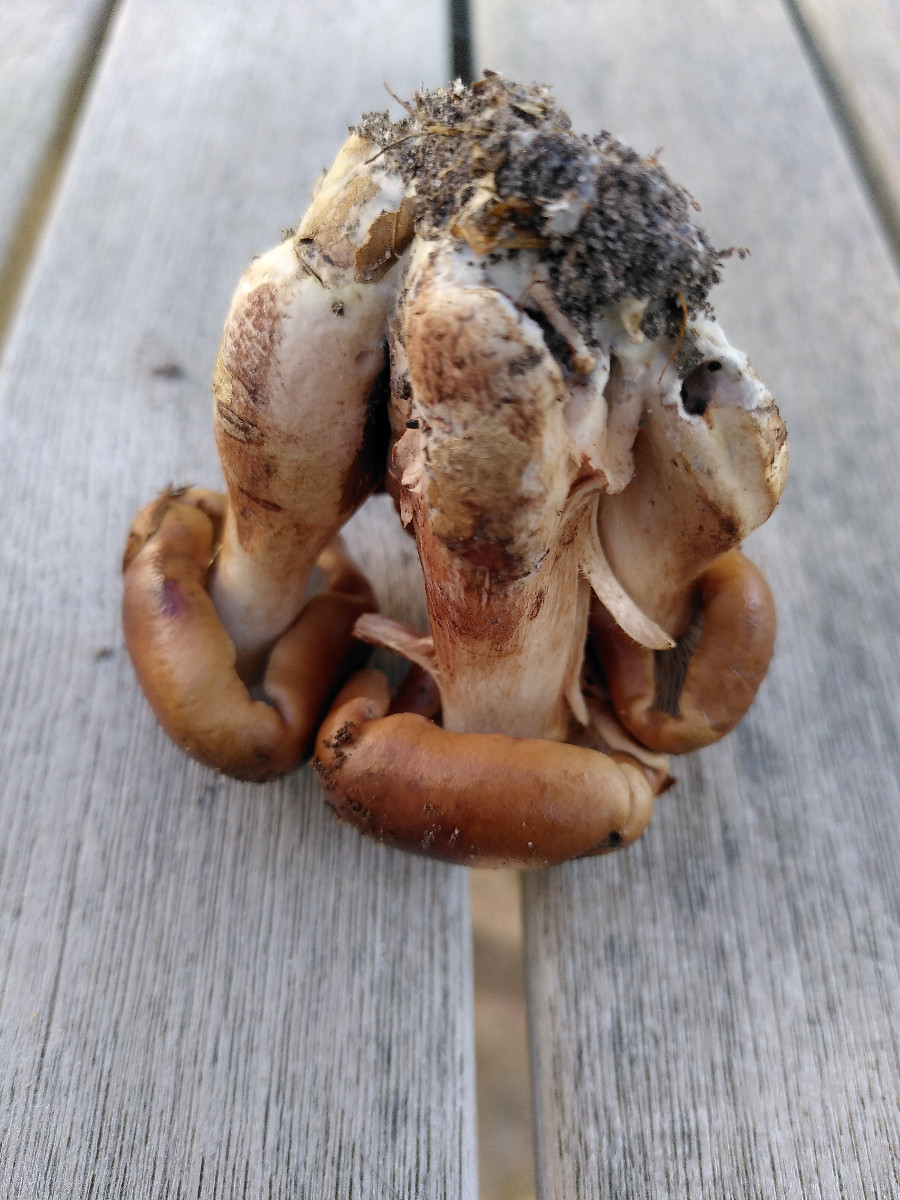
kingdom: Fungi
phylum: Basidiomycota
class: Agaricomycetes
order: Agaricales
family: Tricholomataceae
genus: Tricholoma
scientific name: Tricholoma ustale
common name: sveden ridderhat
